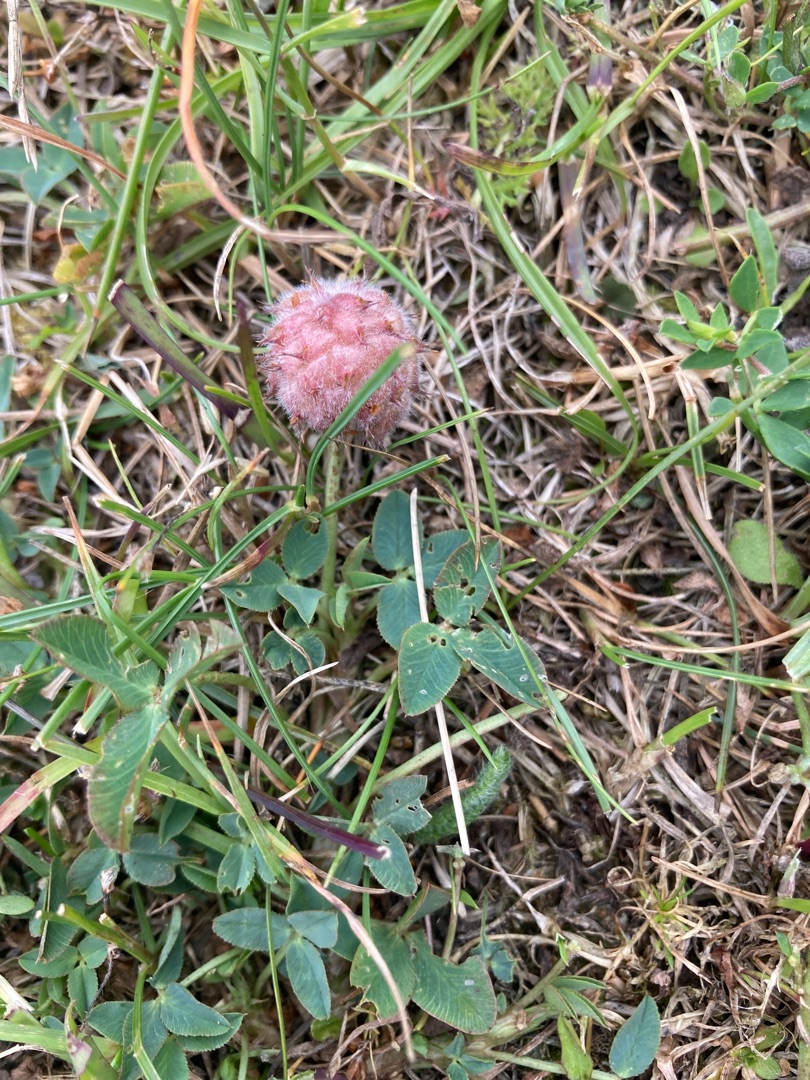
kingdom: Plantae
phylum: Tracheophyta
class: Magnoliopsida
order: Fabales
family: Fabaceae
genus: Trifolium
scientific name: Trifolium fragiferum
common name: Jordbær-kløver
